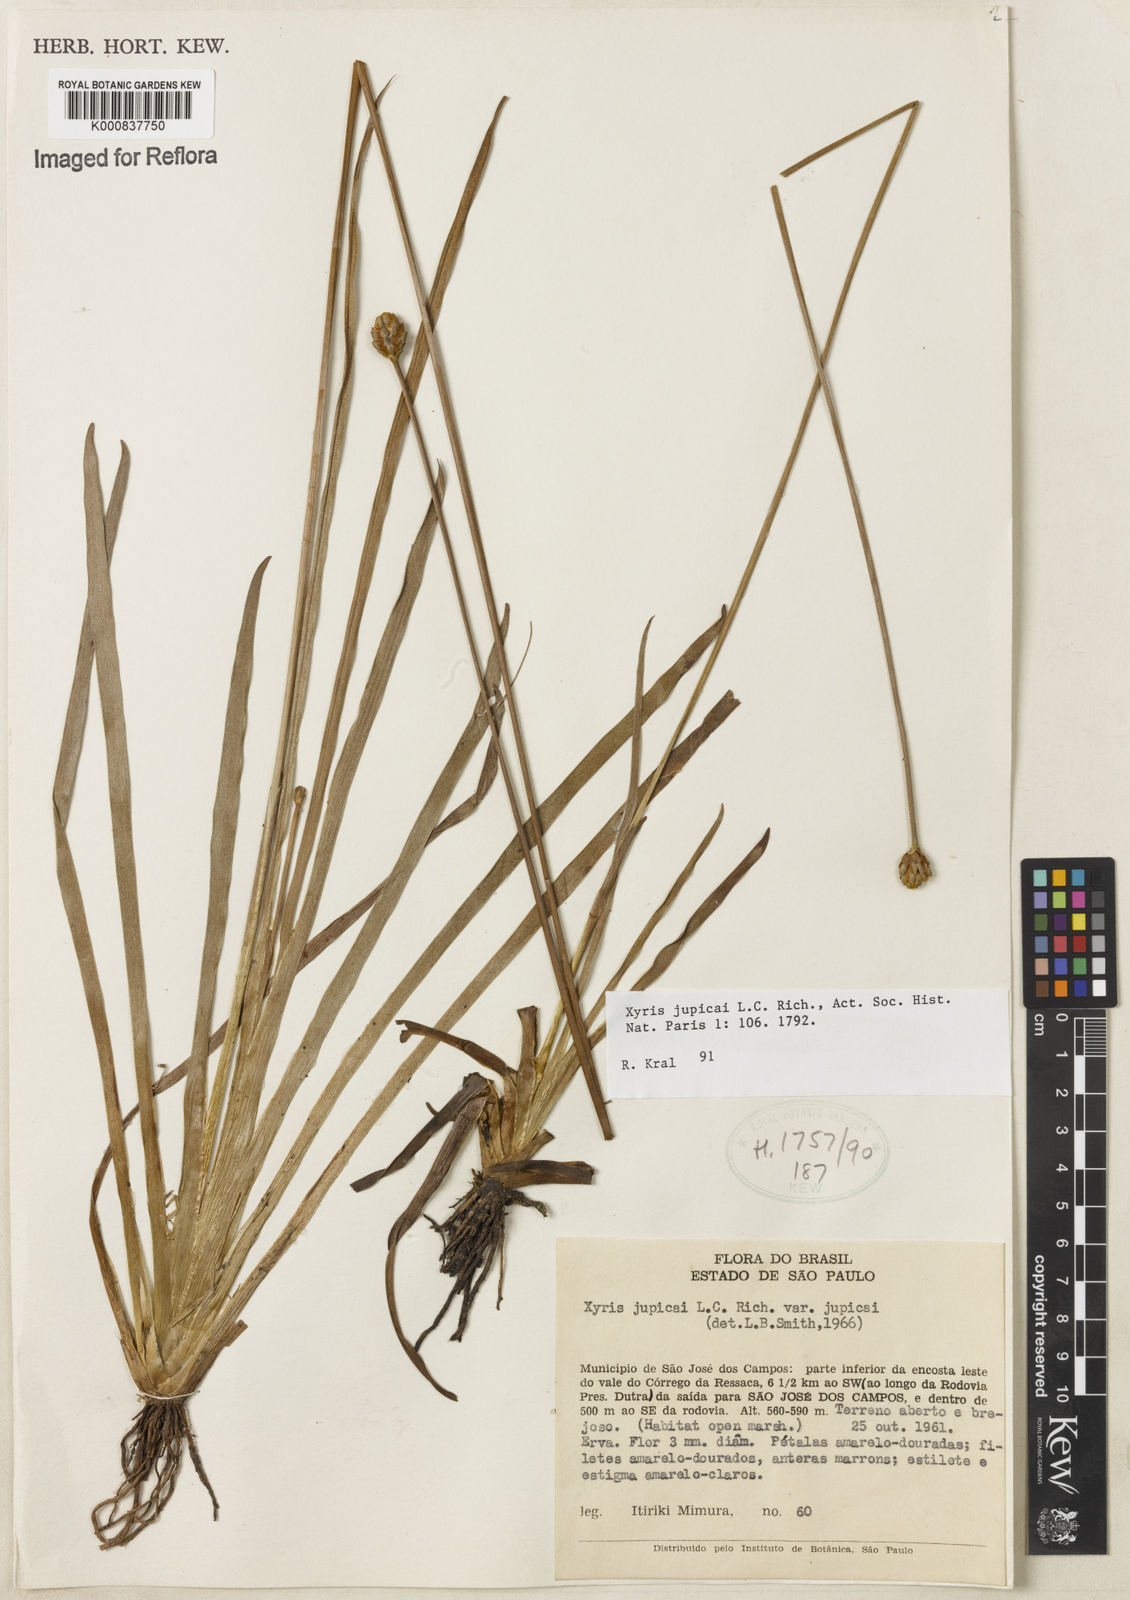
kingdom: Plantae
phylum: Tracheophyta
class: Liliopsida
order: Poales
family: Xyridaceae
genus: Xyris
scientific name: Xyris jupicai
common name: Richard's yelloweyed grass
